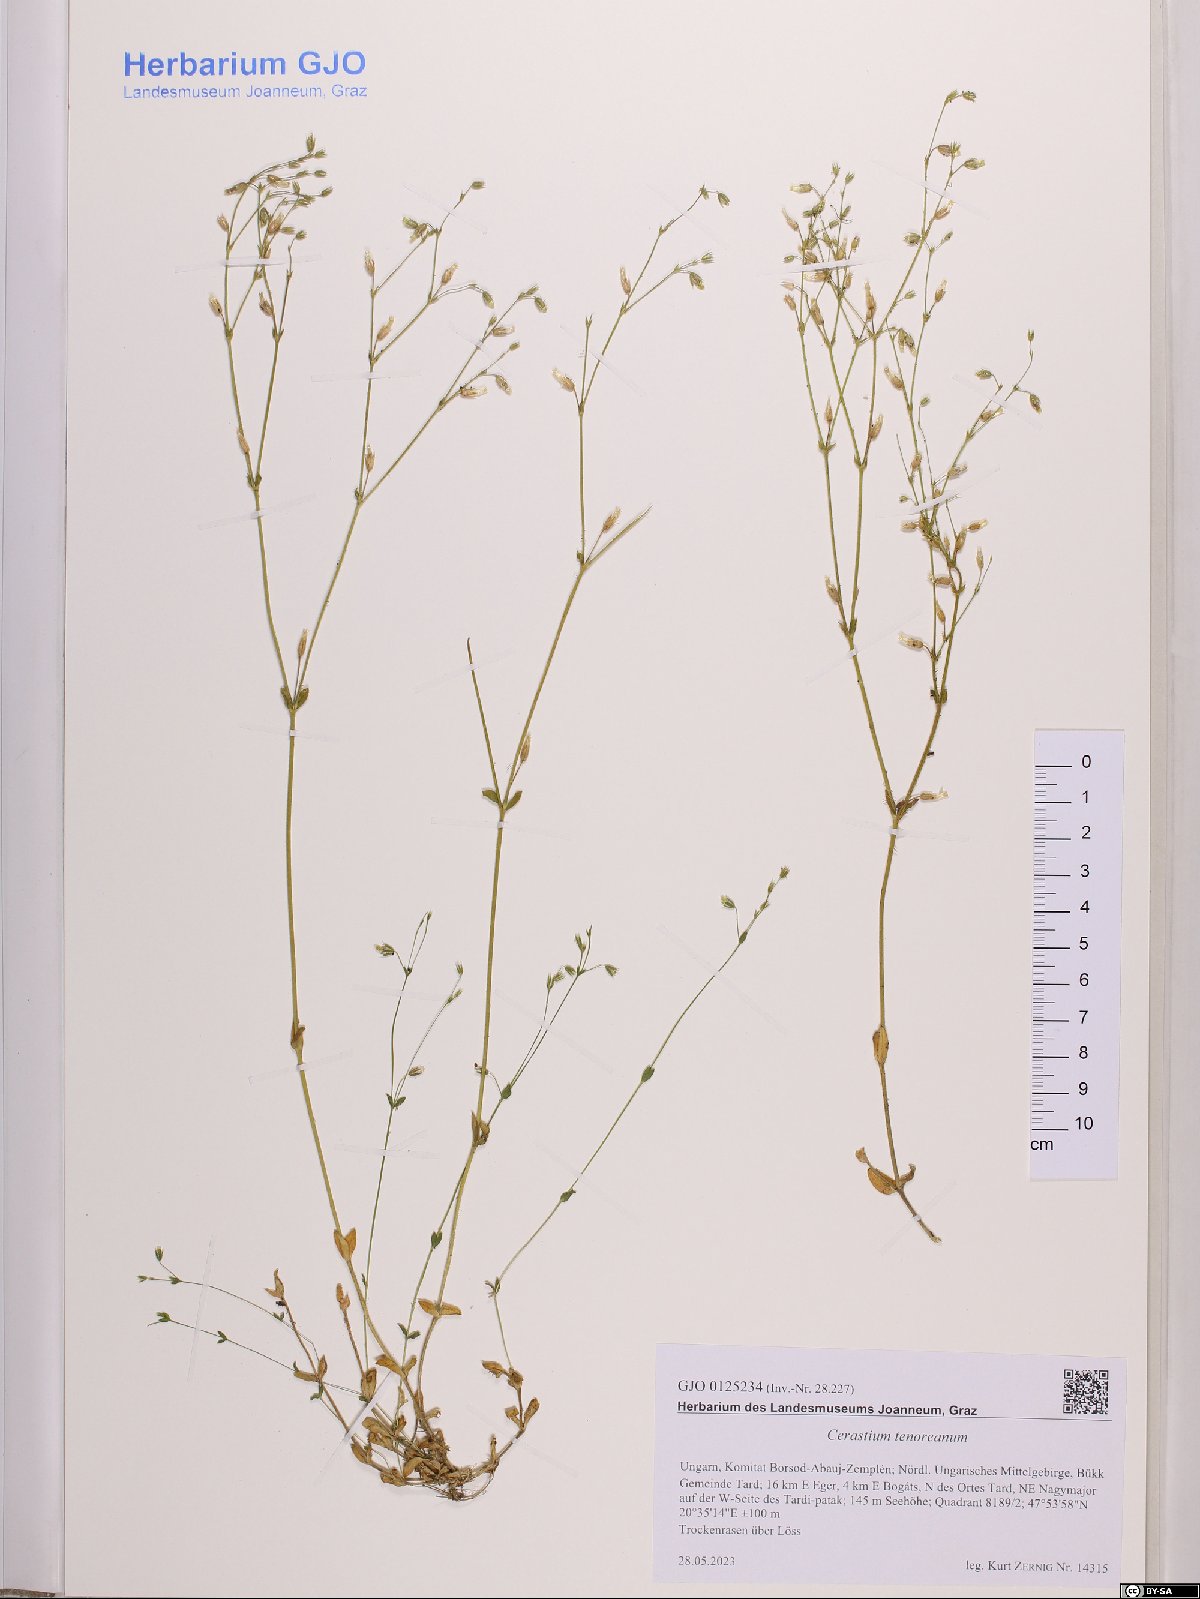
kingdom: Plantae
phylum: Tracheophyta
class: Magnoliopsida
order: Caryophyllales
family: Caryophyllaceae
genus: Cerastium
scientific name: Cerastium tenoreanum
